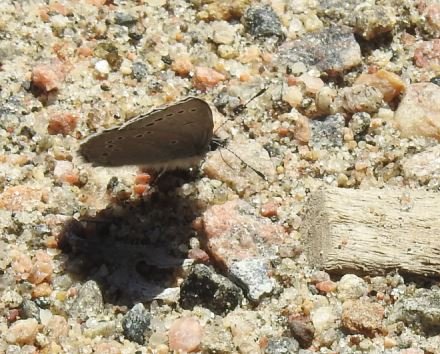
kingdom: Animalia
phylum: Arthropoda
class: Insecta
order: Lepidoptera
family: Lycaenidae
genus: Glaucopsyche
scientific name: Glaucopsyche lygdamus
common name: Silvery Blue
